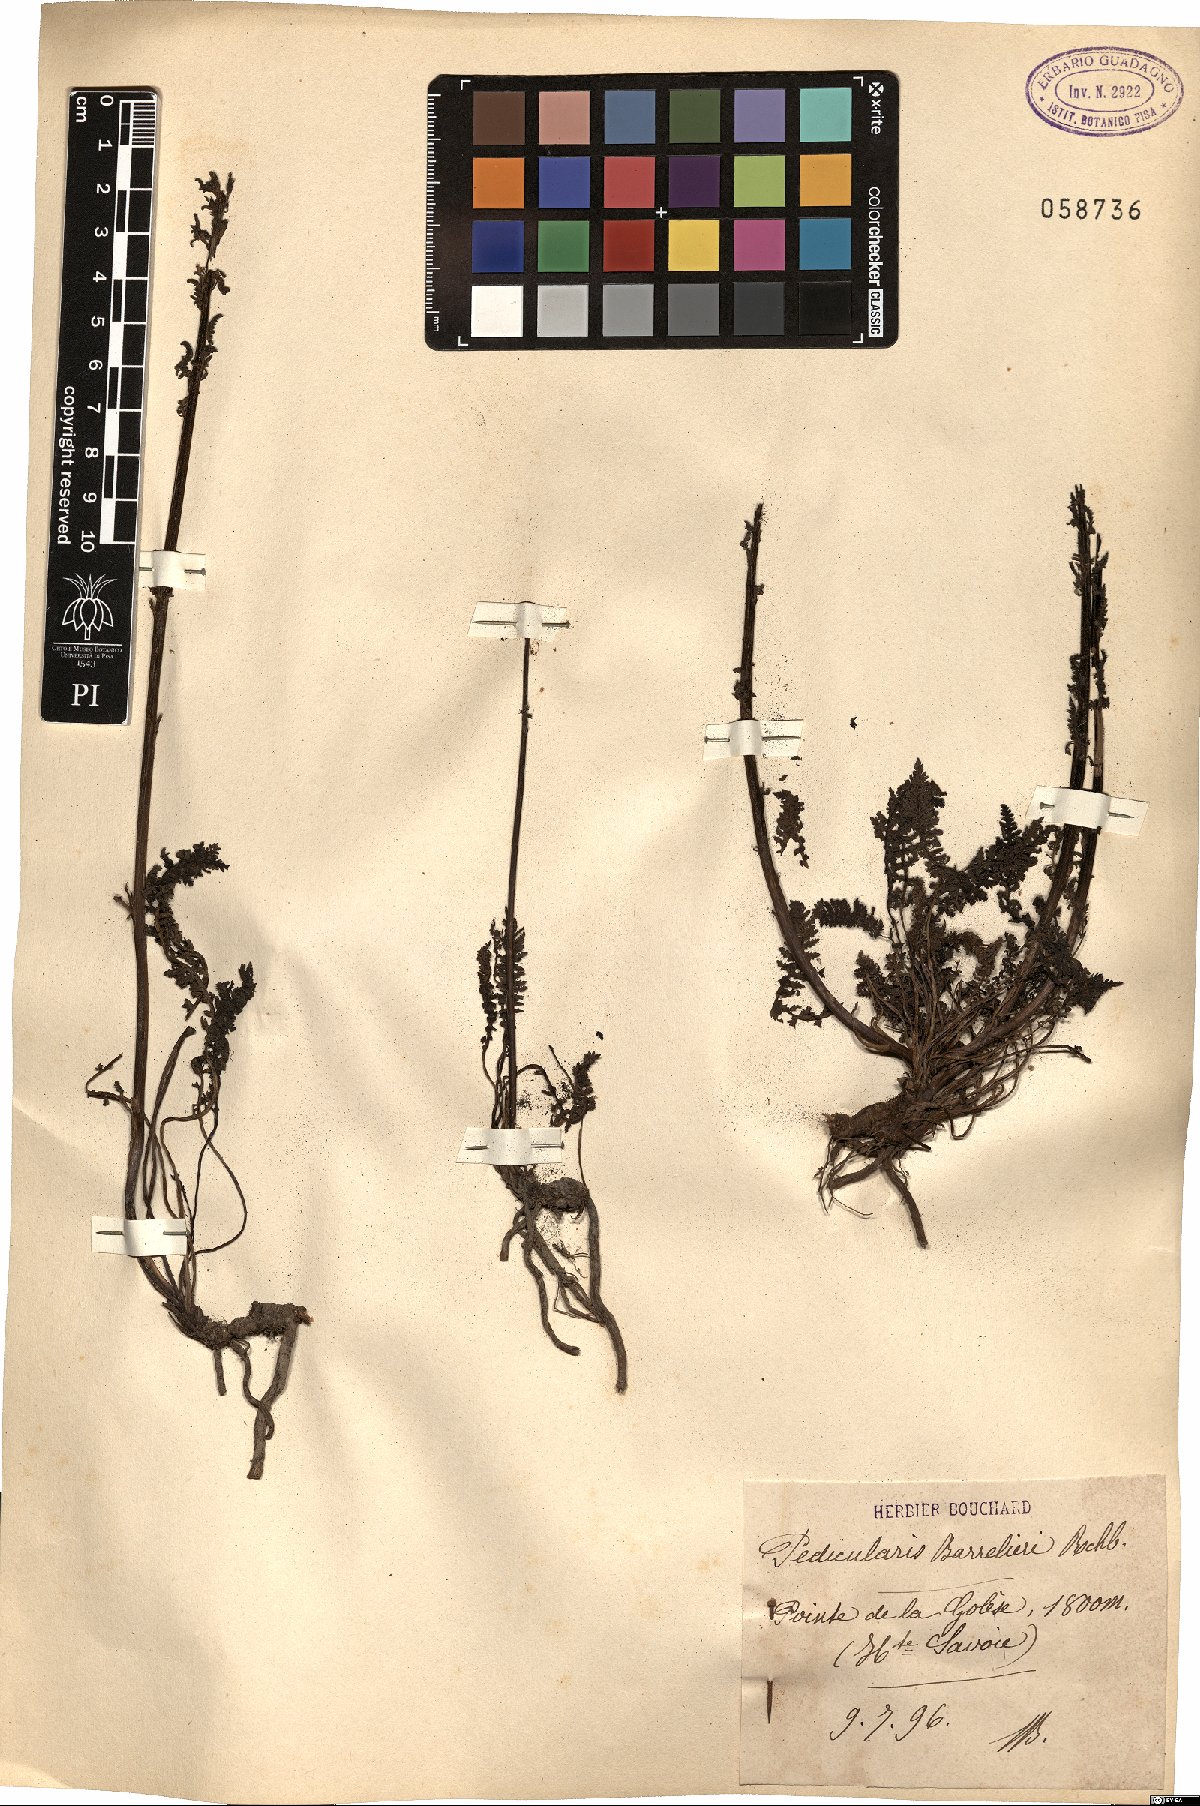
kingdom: Plantae
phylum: Tracheophyta
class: Magnoliopsida
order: Lamiales
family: Orobanchaceae
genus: Pedicularis
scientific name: Pedicularis ascendens
